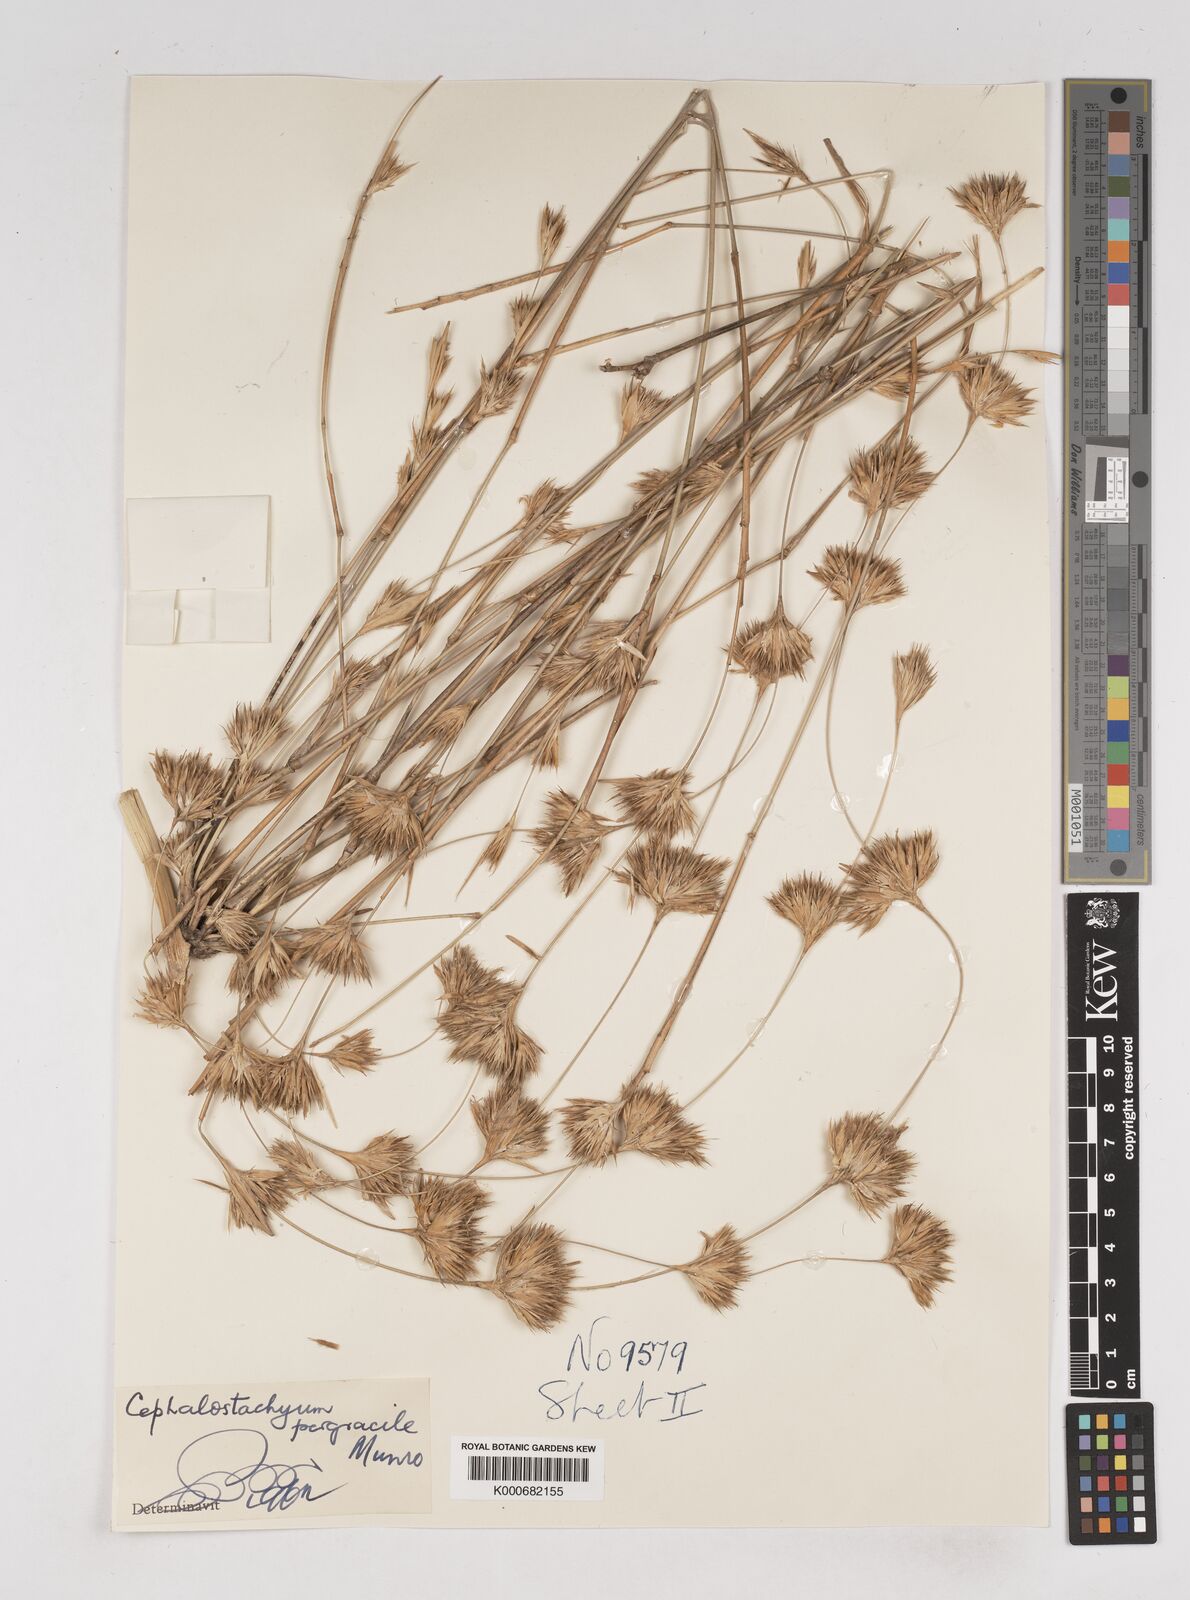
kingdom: Plantae
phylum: Tracheophyta
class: Liliopsida
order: Poales
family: Poaceae
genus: Schizostachyum
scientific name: Schizostachyum pergracile
